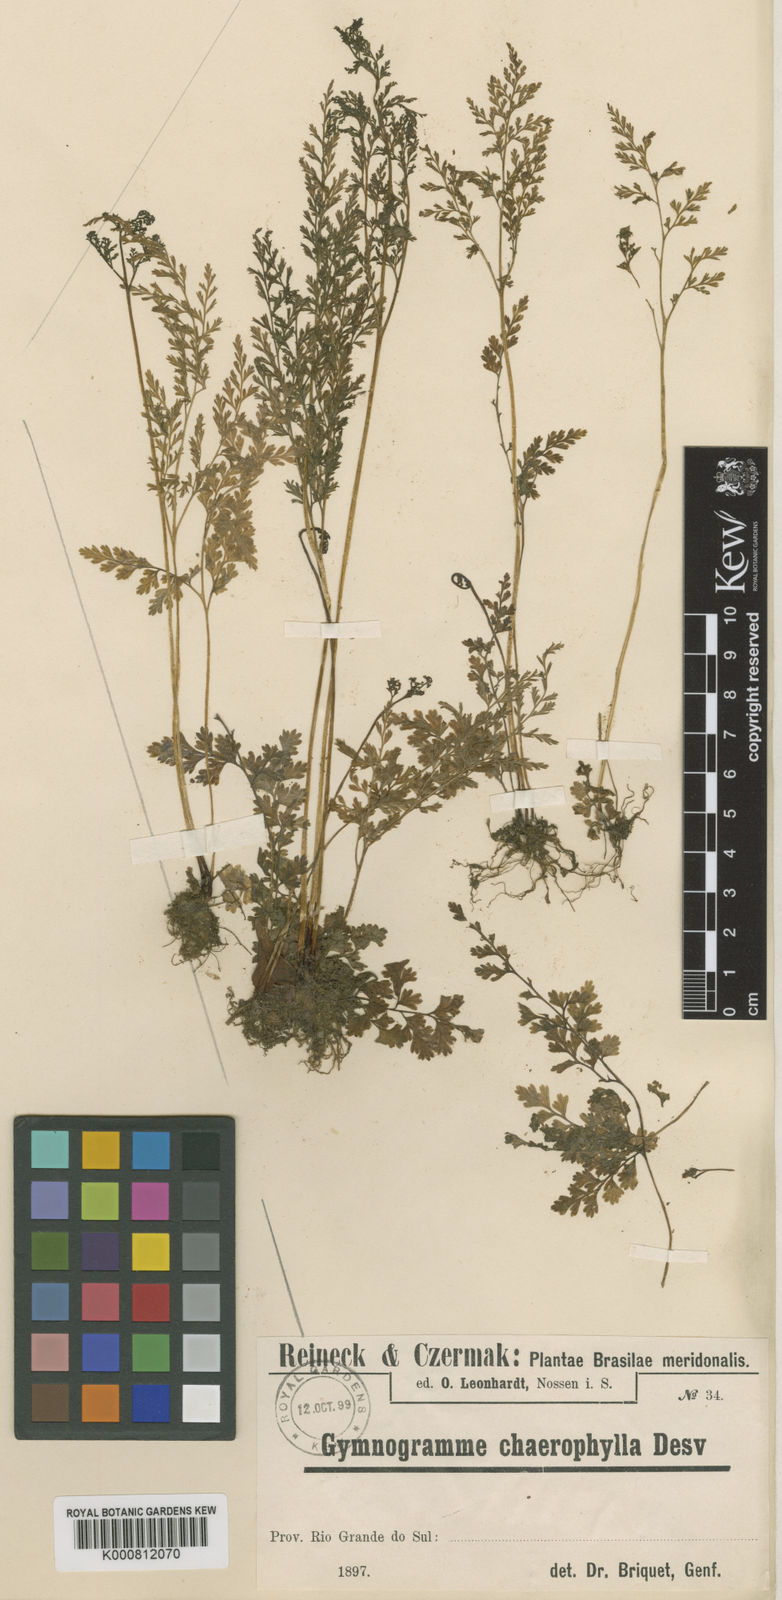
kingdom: Plantae
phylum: Tracheophyta
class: Polypodiopsida
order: Polypodiales
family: Pteridaceae
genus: Gastoniella
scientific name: Gastoniella chaerophylla
